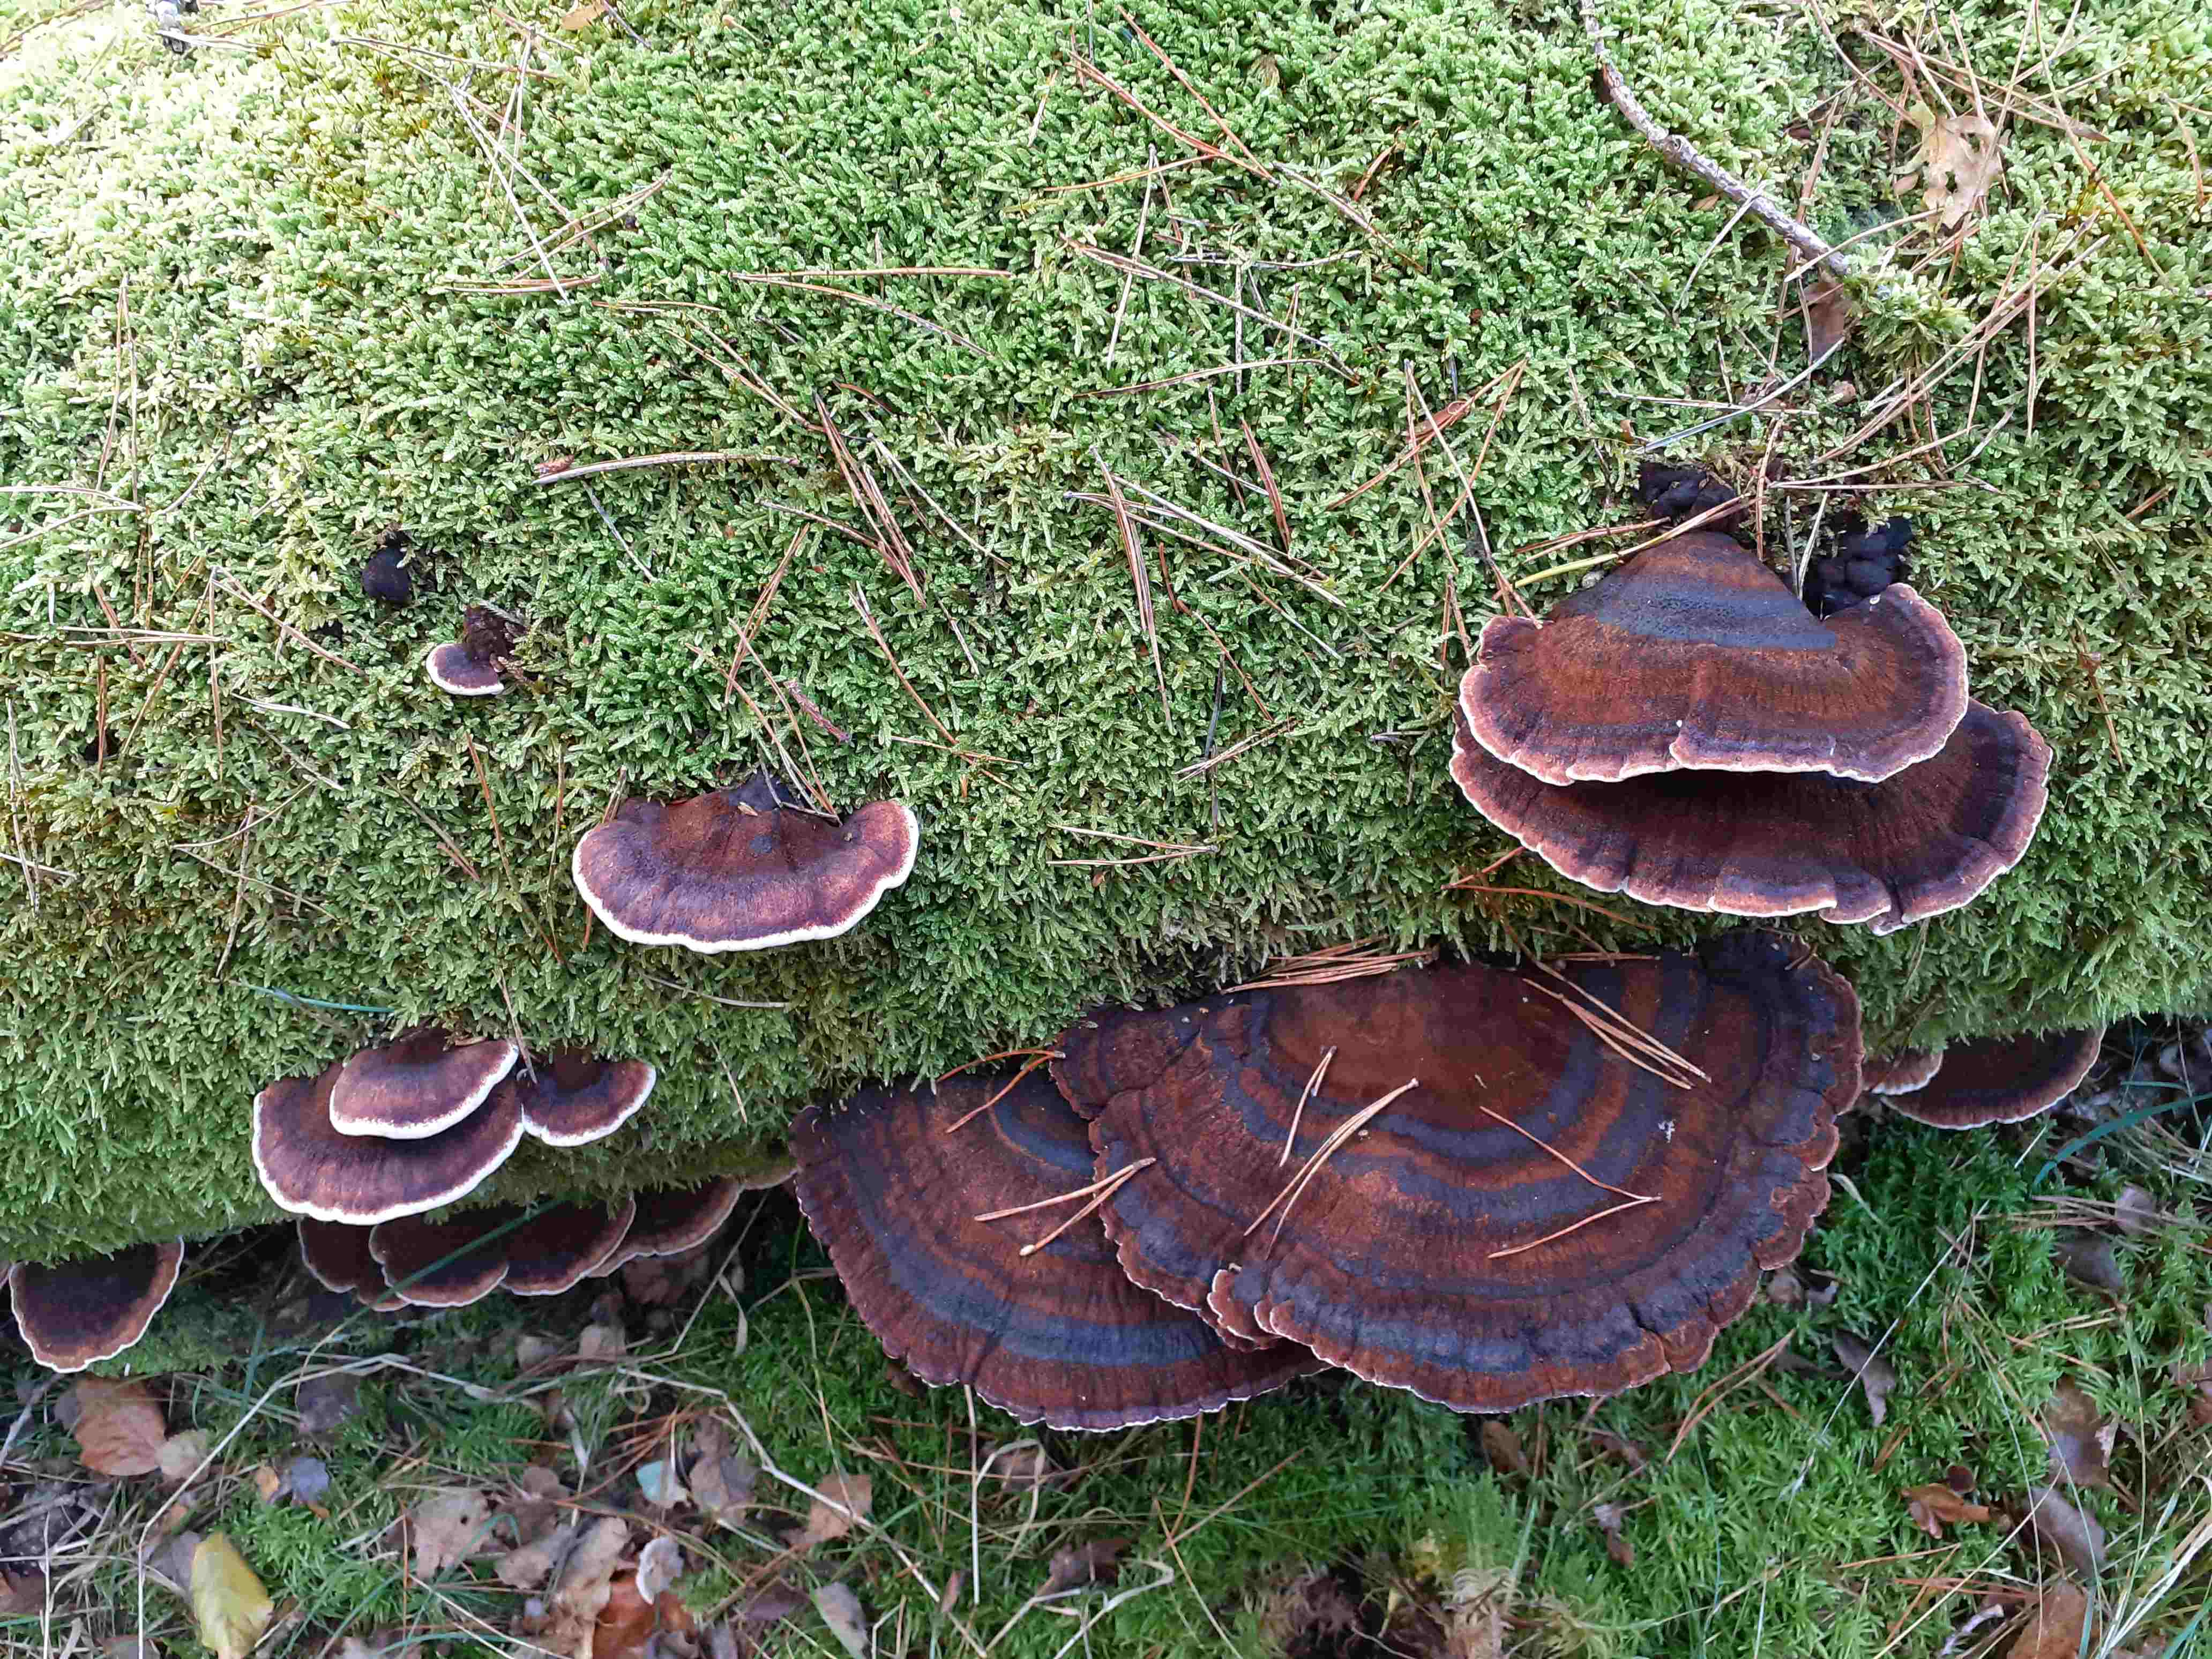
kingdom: Fungi
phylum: Basidiomycota
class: Agaricomycetes
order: Polyporales
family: Ischnodermataceae
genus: Ischnoderma
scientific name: Ischnoderma benzoinum
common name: gran-tjæreporesvamp
